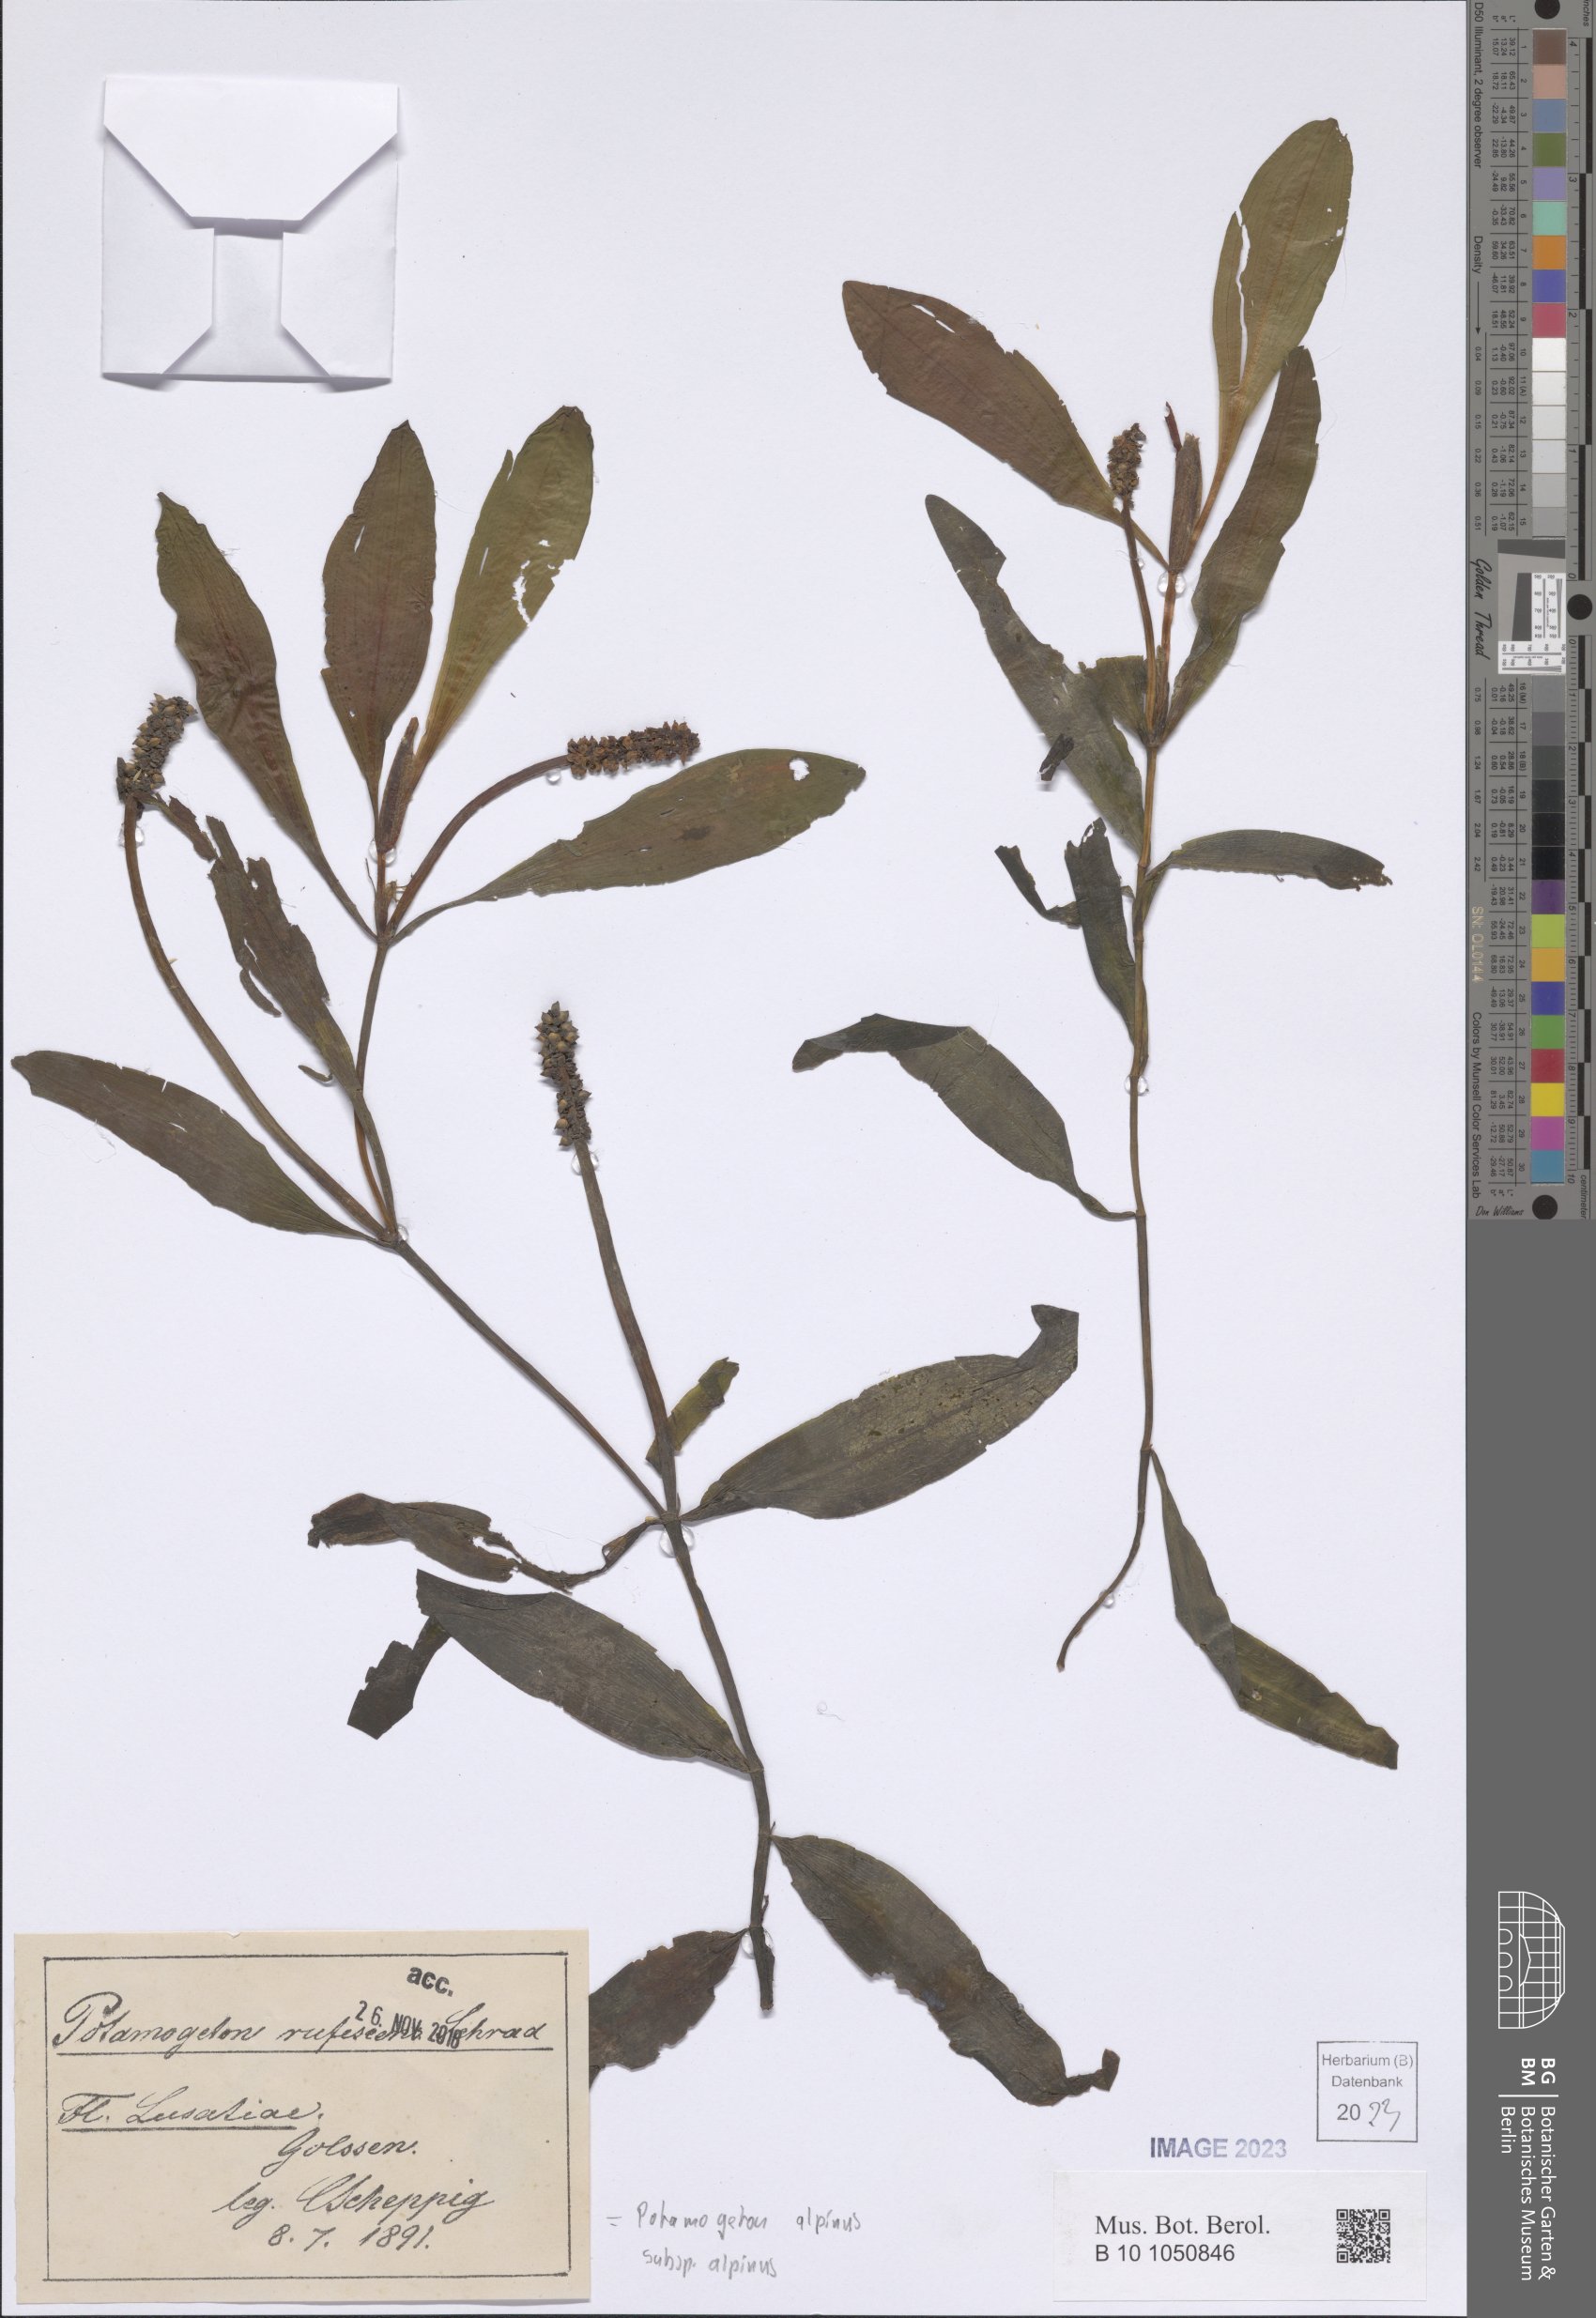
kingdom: Plantae
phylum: Tracheophyta
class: Liliopsida
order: Alismatales
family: Potamogetonaceae
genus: Potamogeton
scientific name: Potamogeton alpinus
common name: Red pondweed
